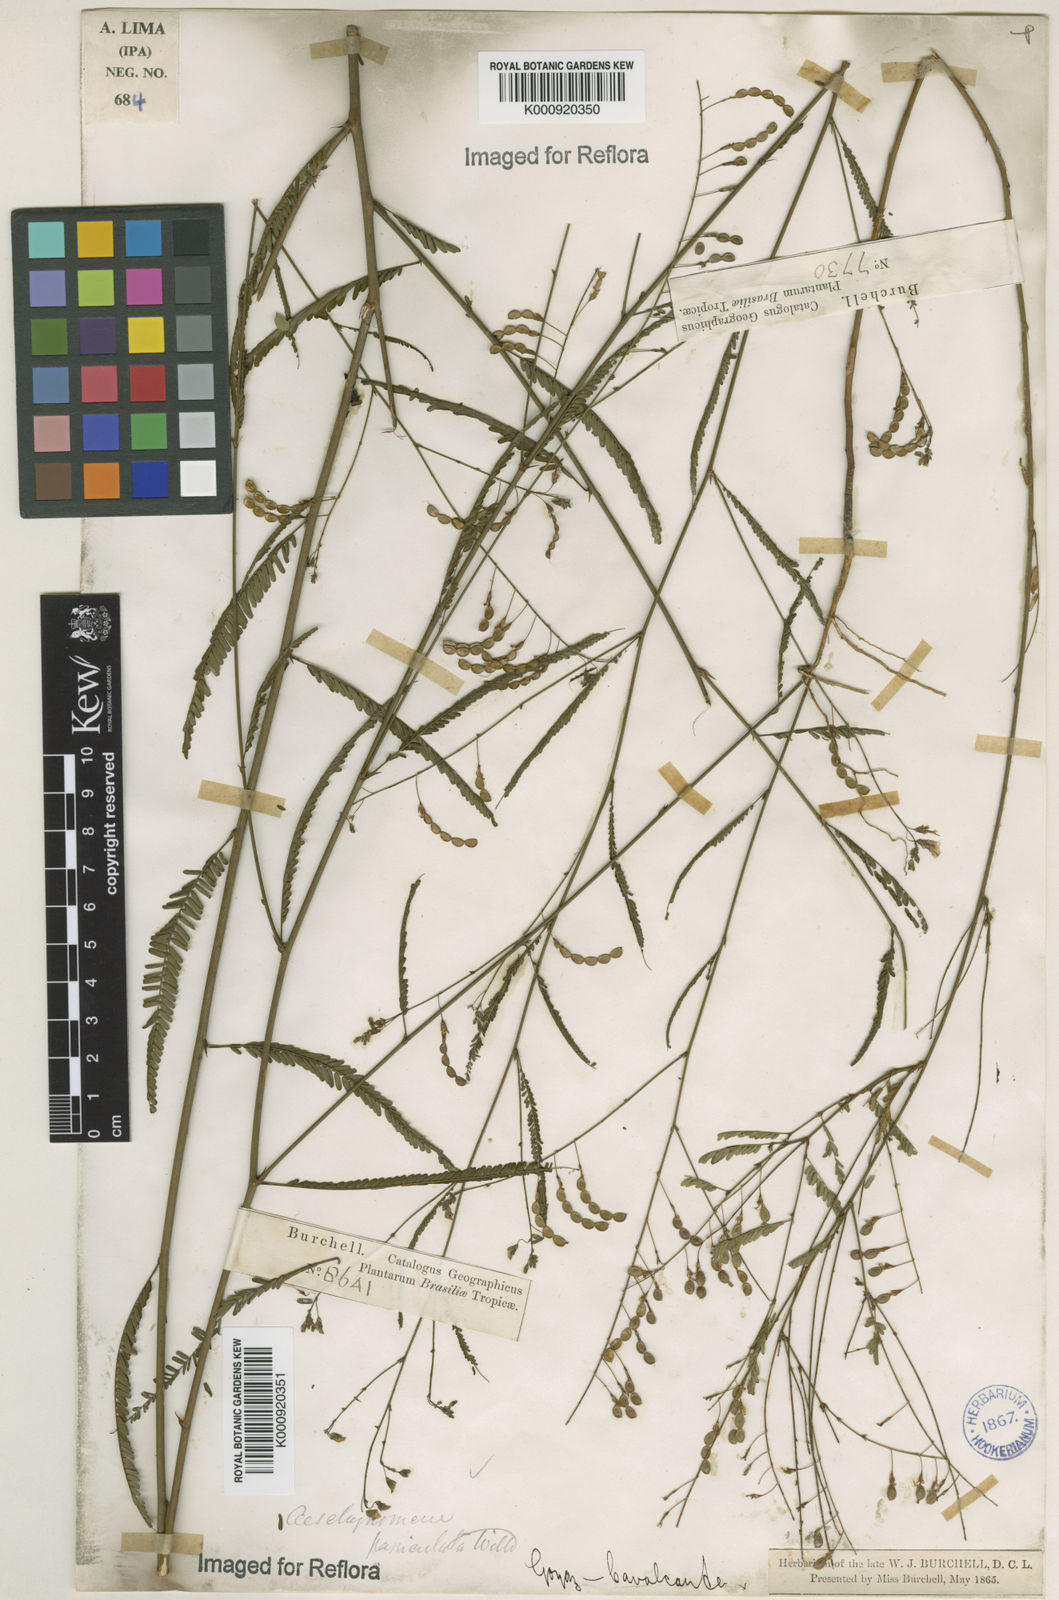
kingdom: Plantae
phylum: Tracheophyta
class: Magnoliopsida
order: Fabales
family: Fabaceae
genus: Ctenodon
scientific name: Ctenodon paniculatus
